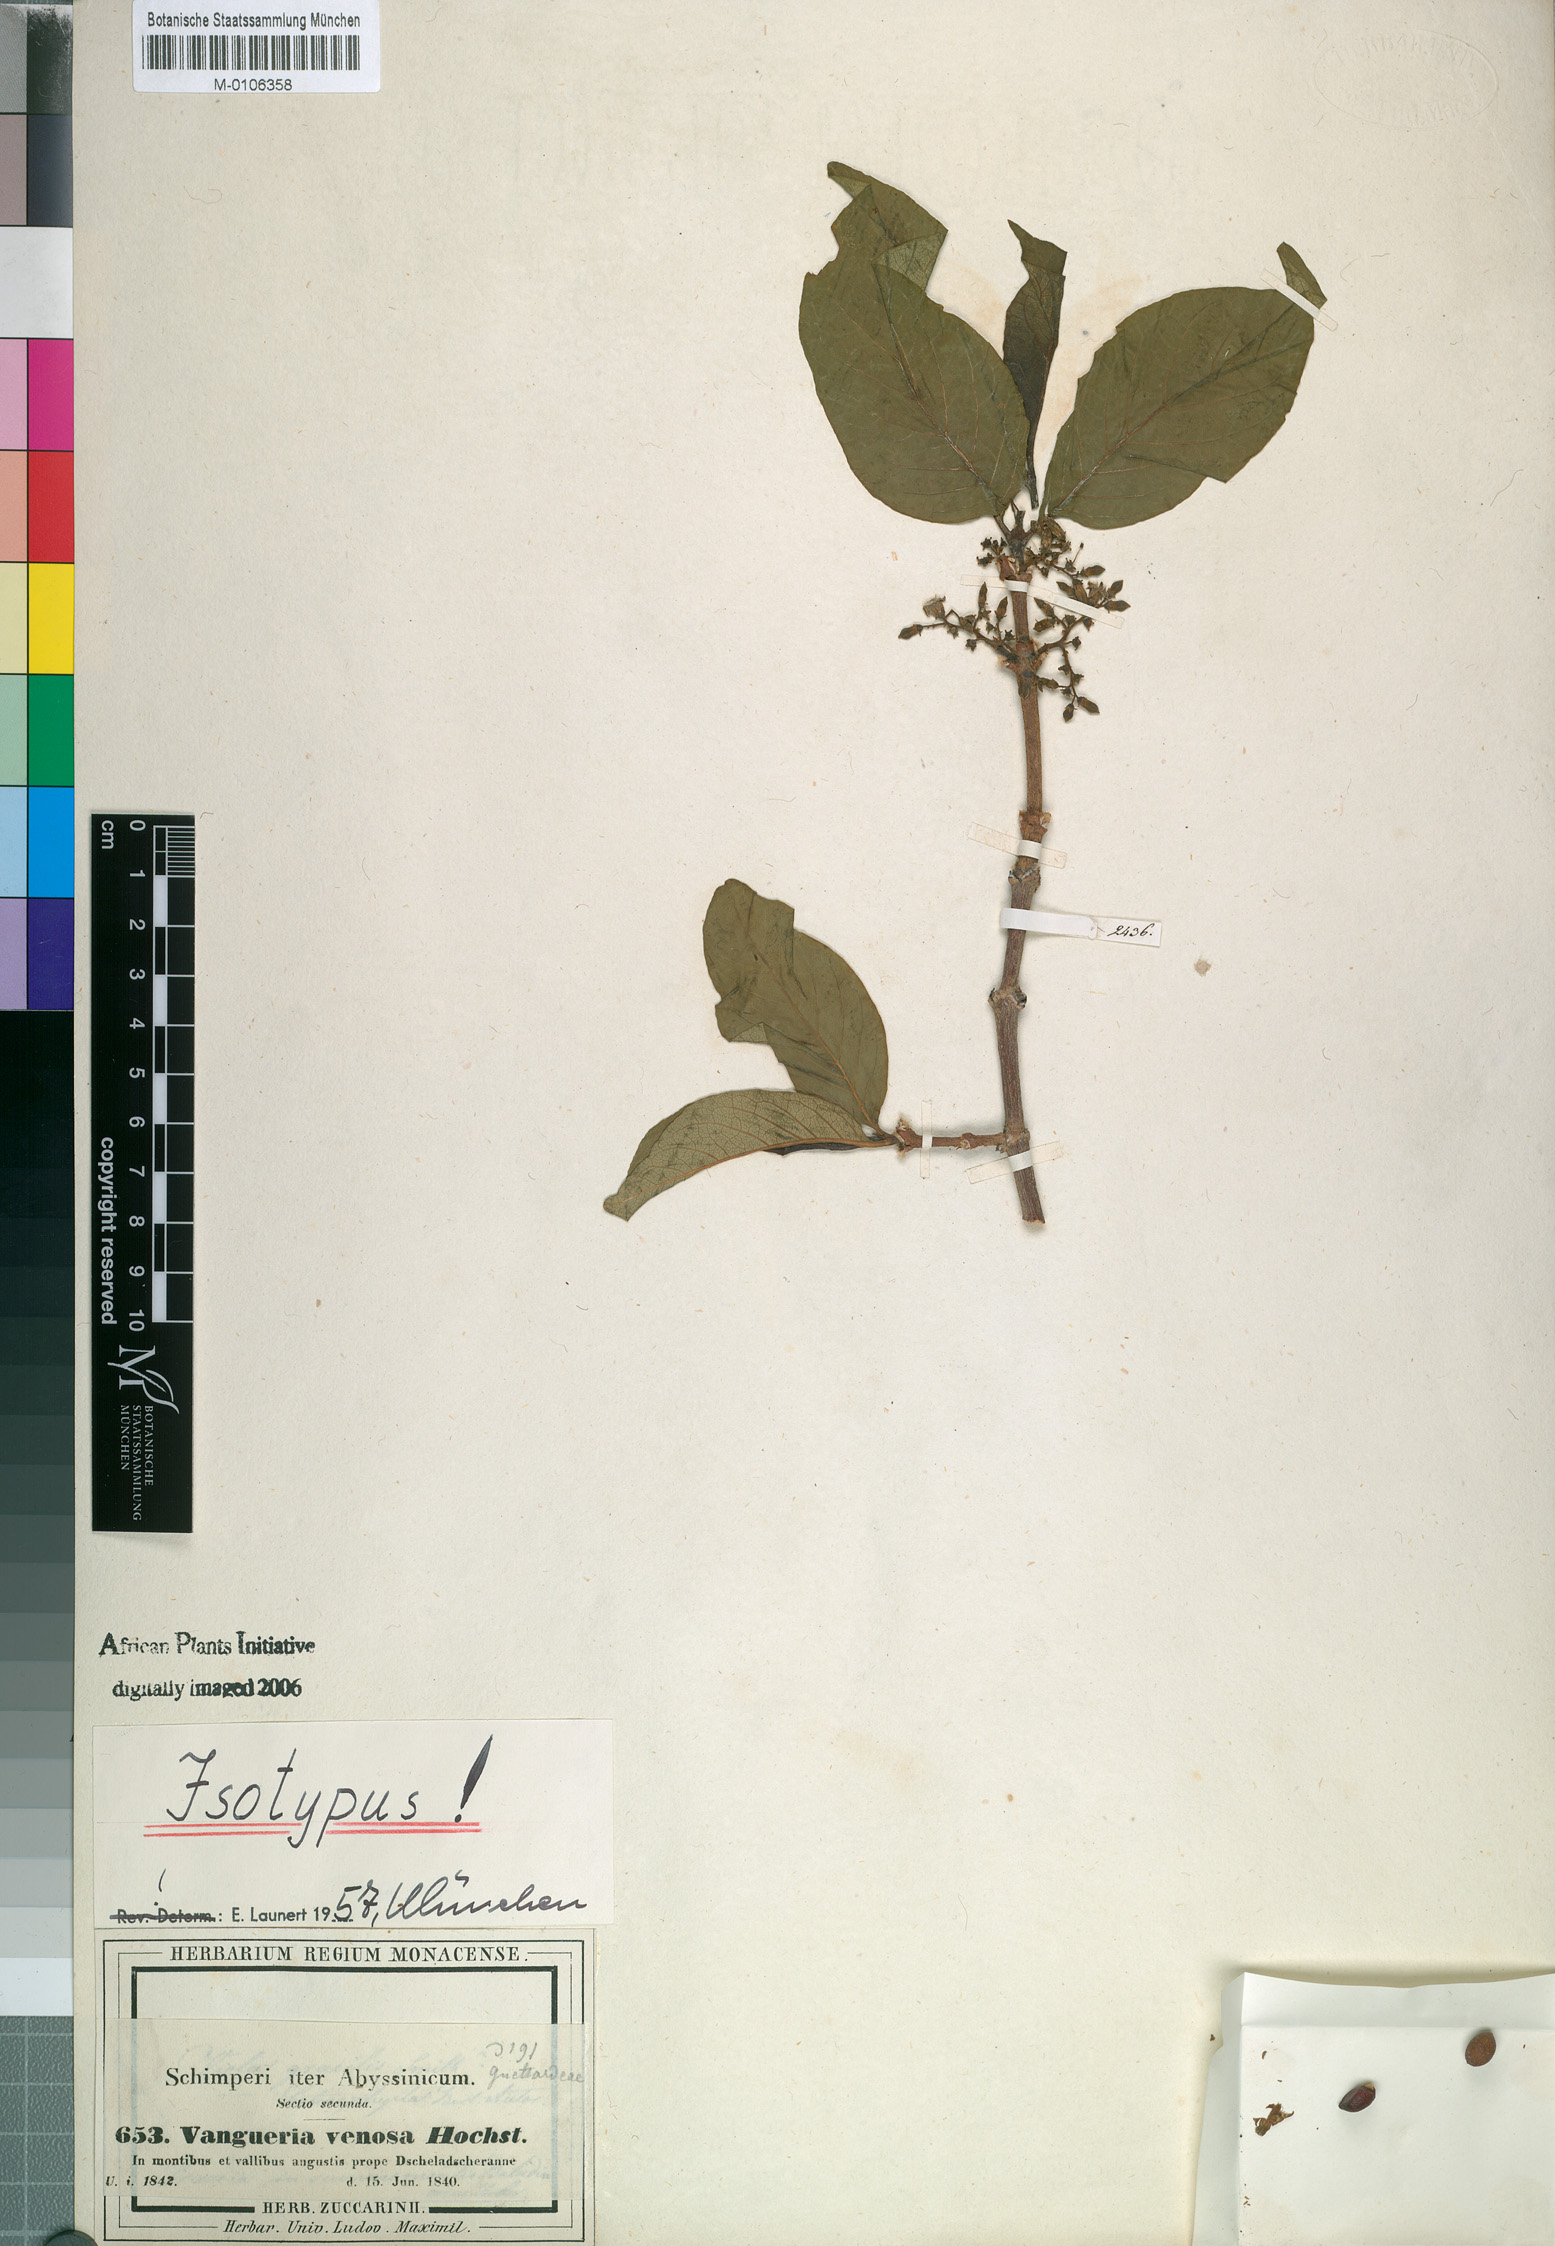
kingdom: Plantae
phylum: Tracheophyta
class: Magnoliopsida
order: Gentianales
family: Rubiaceae
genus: Vangueria
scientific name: Vangueria madagascariensis
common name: Smooth wild-medlar
